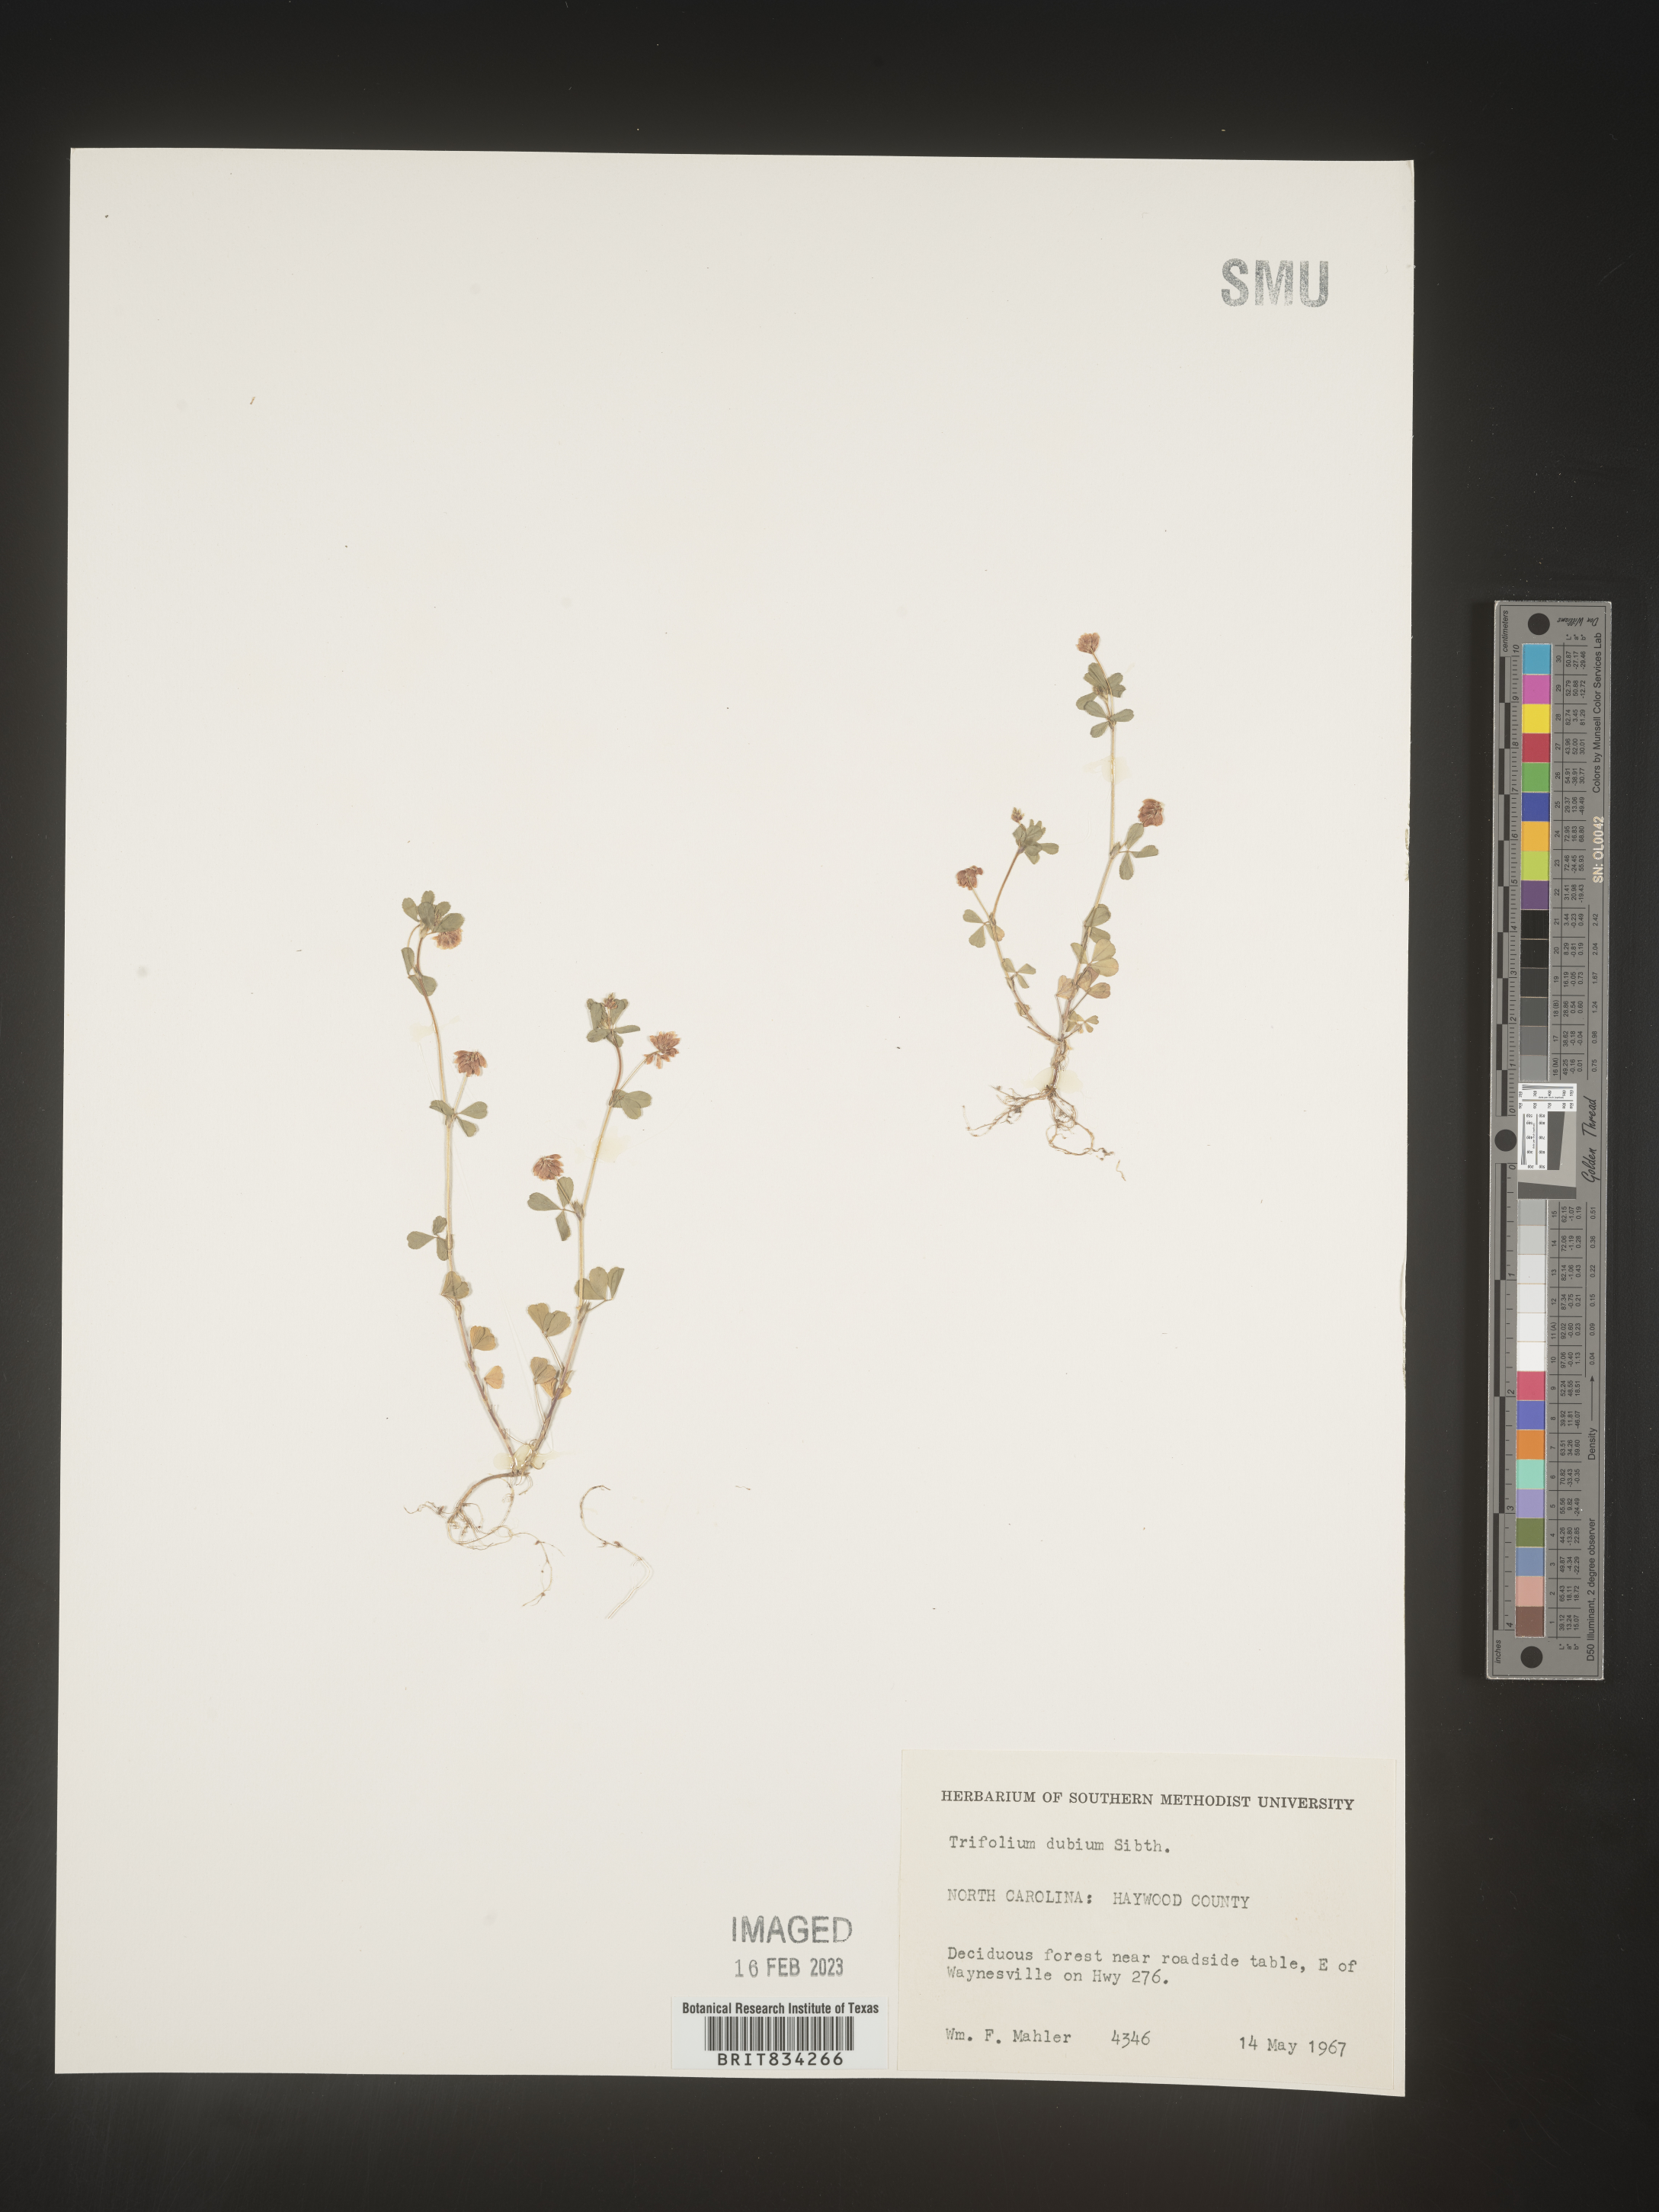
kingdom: Plantae
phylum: Tracheophyta
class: Magnoliopsida
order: Fabales
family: Fabaceae
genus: Trifolium
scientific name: Trifolium dubium
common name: Suckling clover
